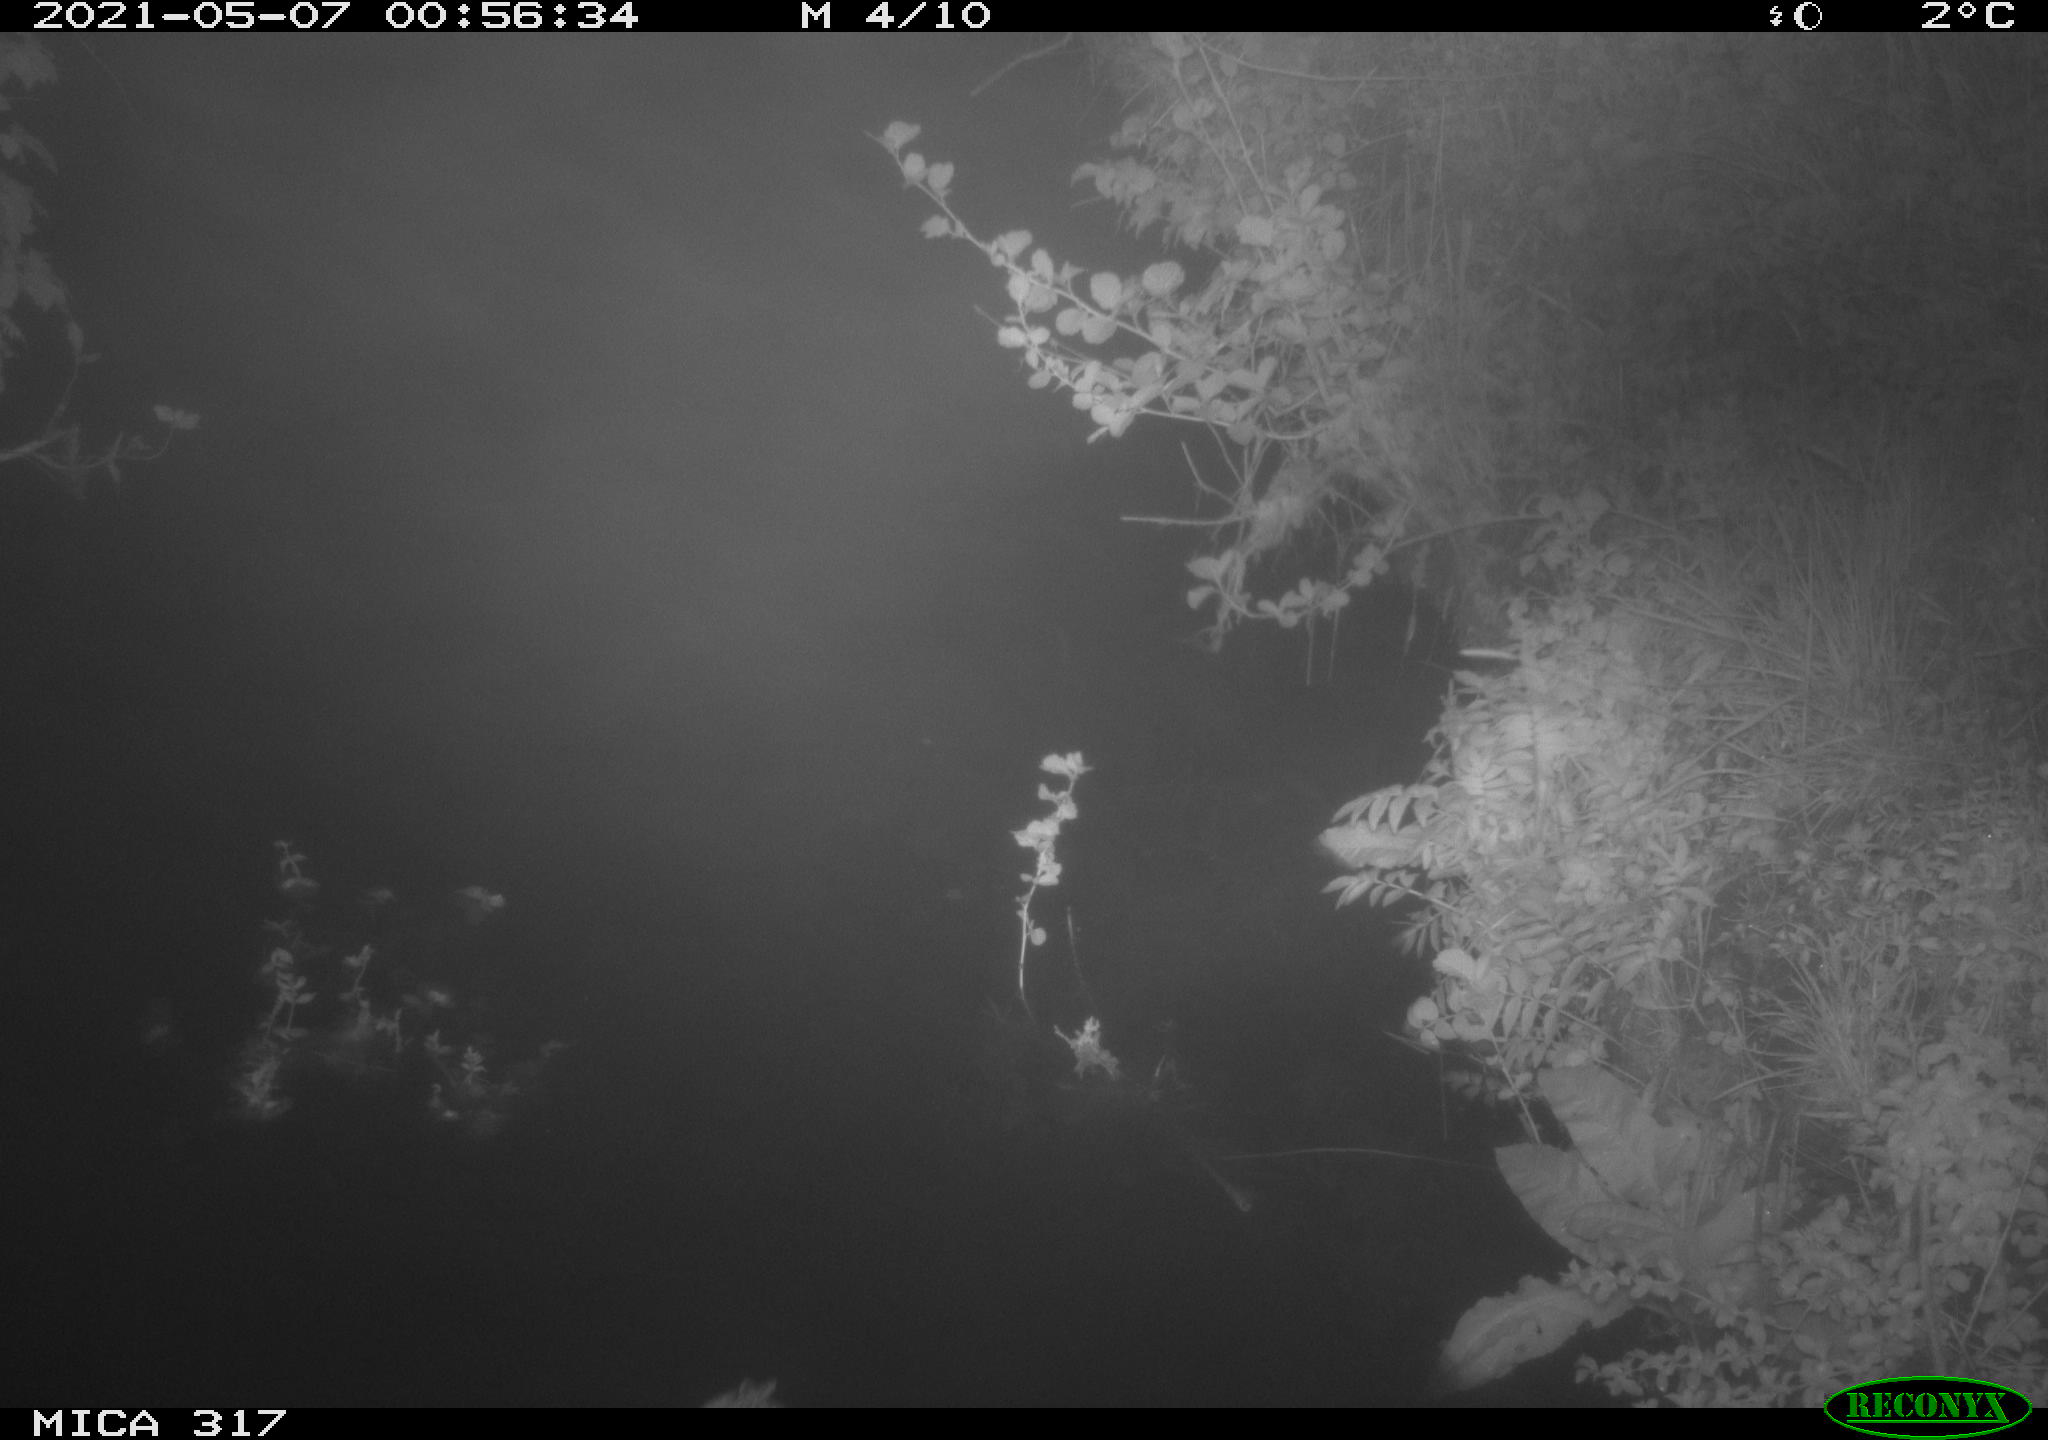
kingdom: Animalia
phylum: Chordata
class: Aves
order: Anseriformes
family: Anatidae
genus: Anas
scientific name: Anas
